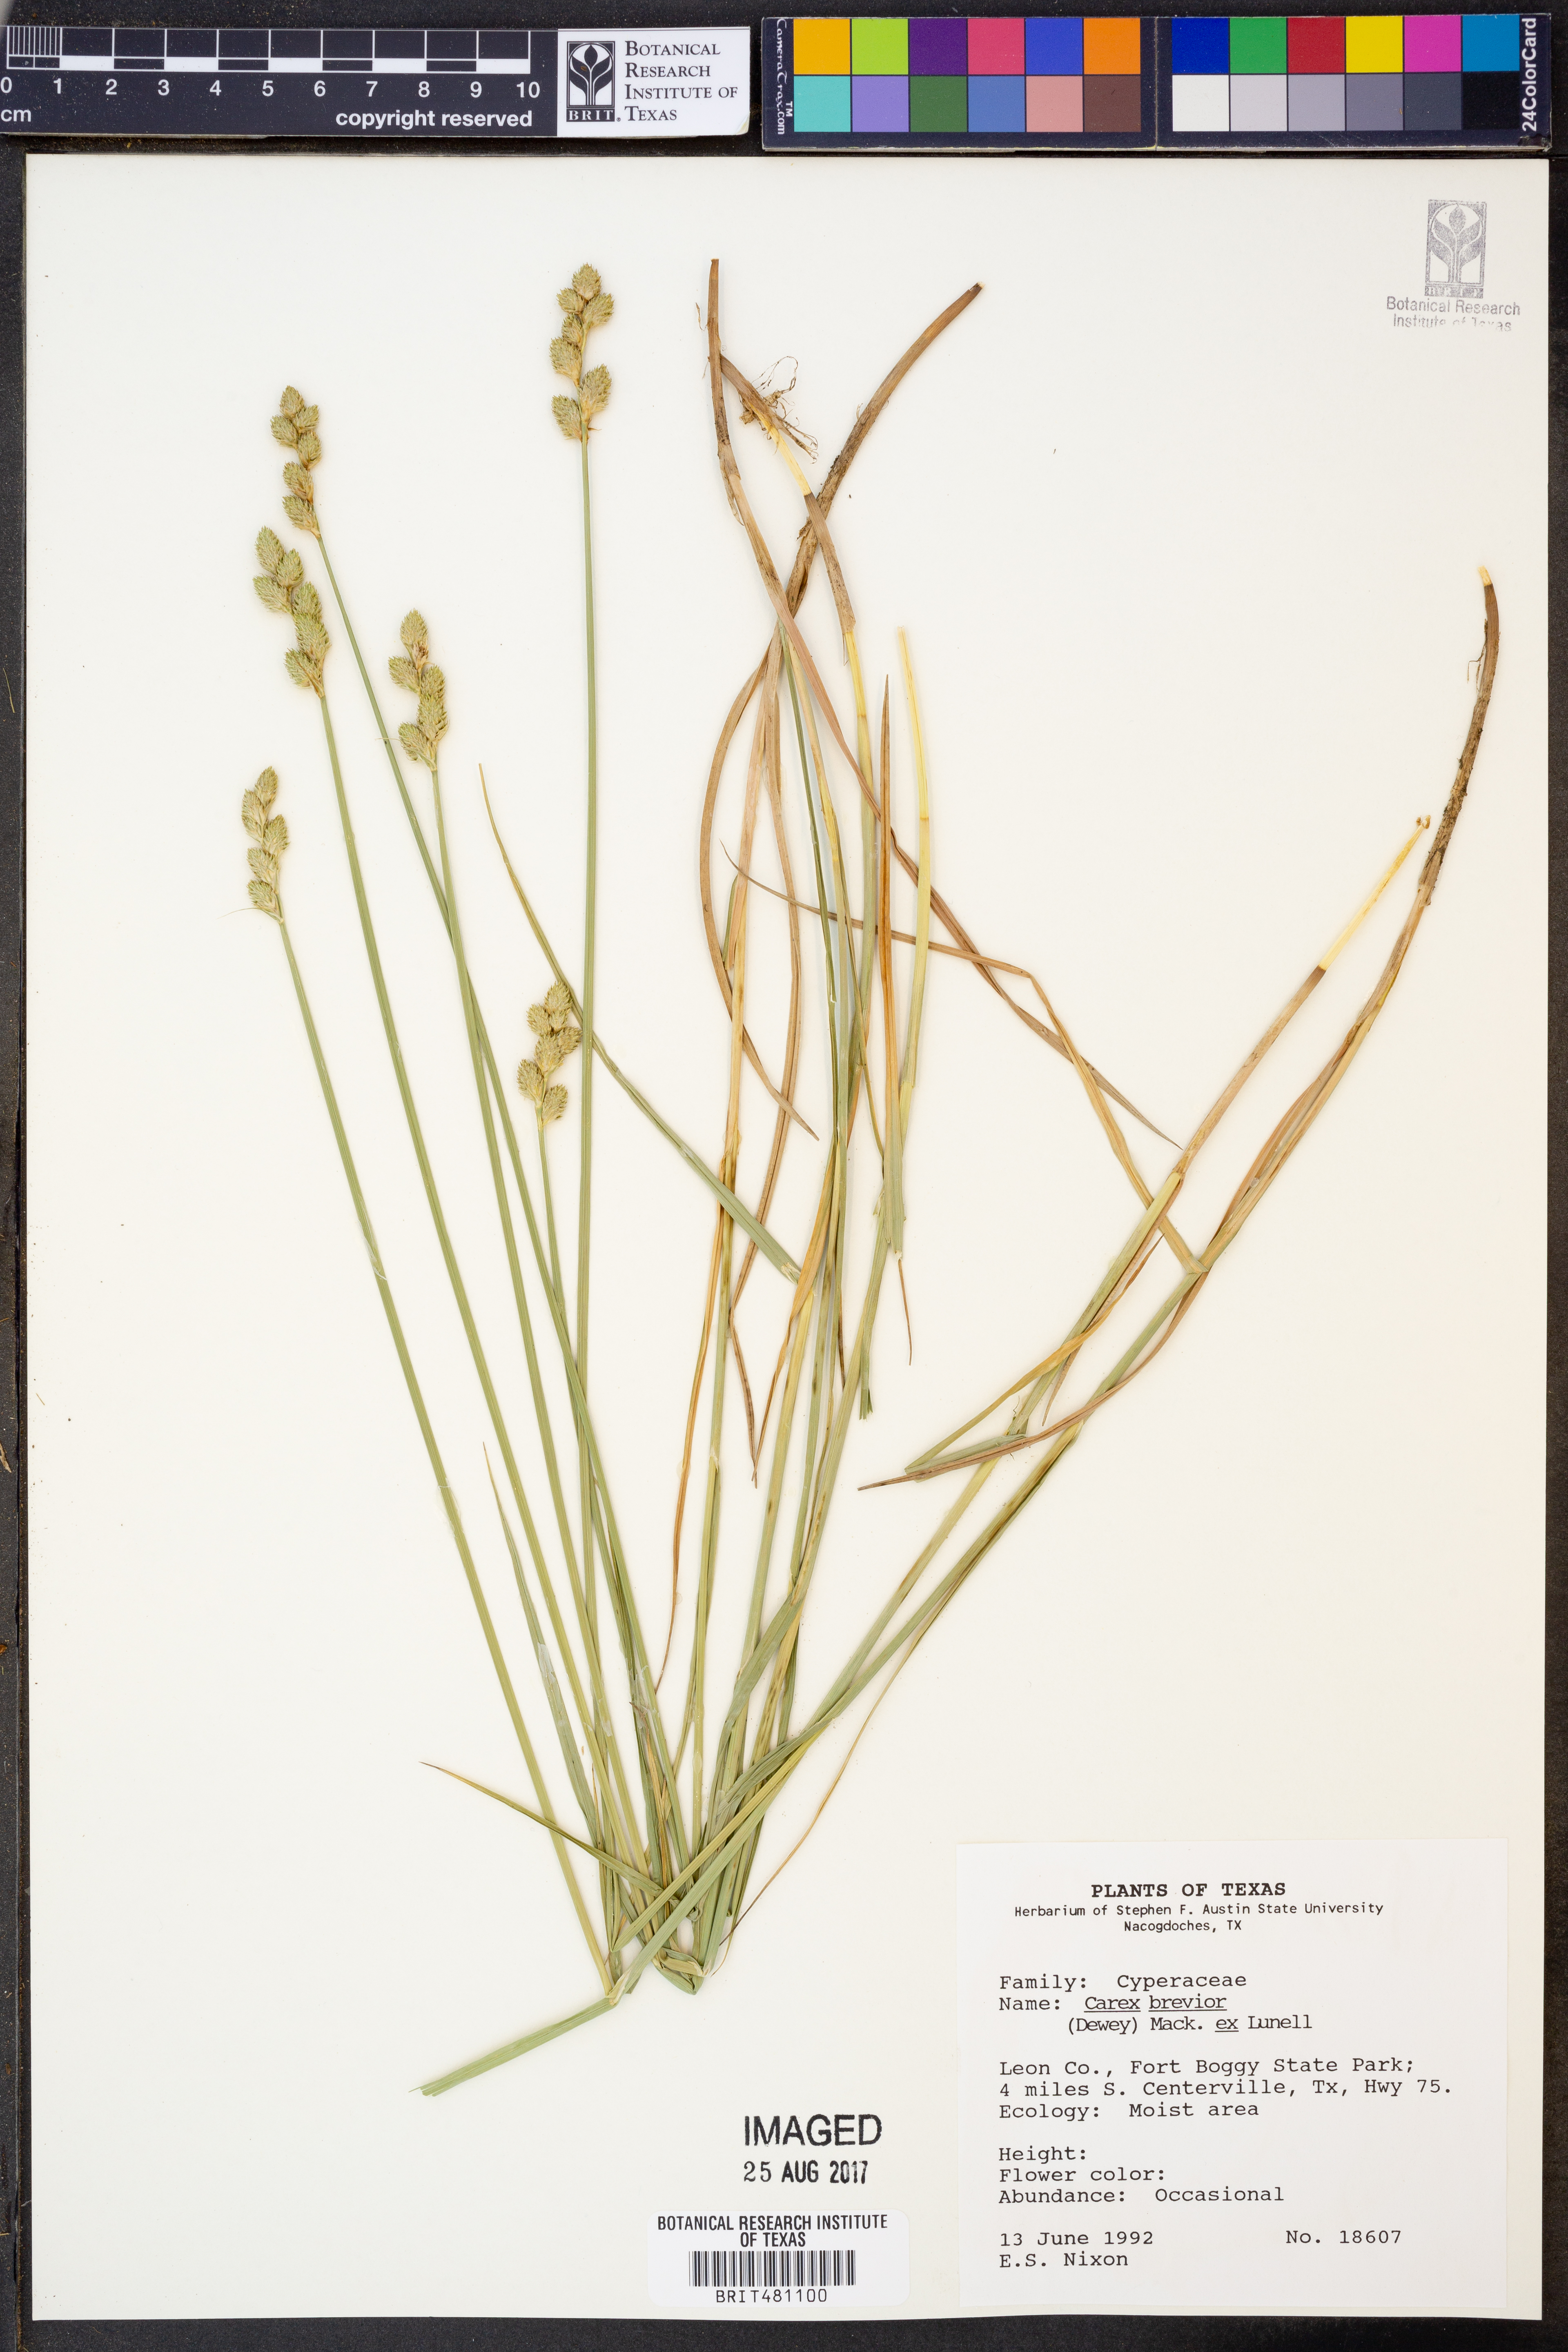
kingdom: Plantae
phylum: Tracheophyta
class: Liliopsida
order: Poales
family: Cyperaceae
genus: Carex
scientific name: Carex brevior
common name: Brevior sedge
